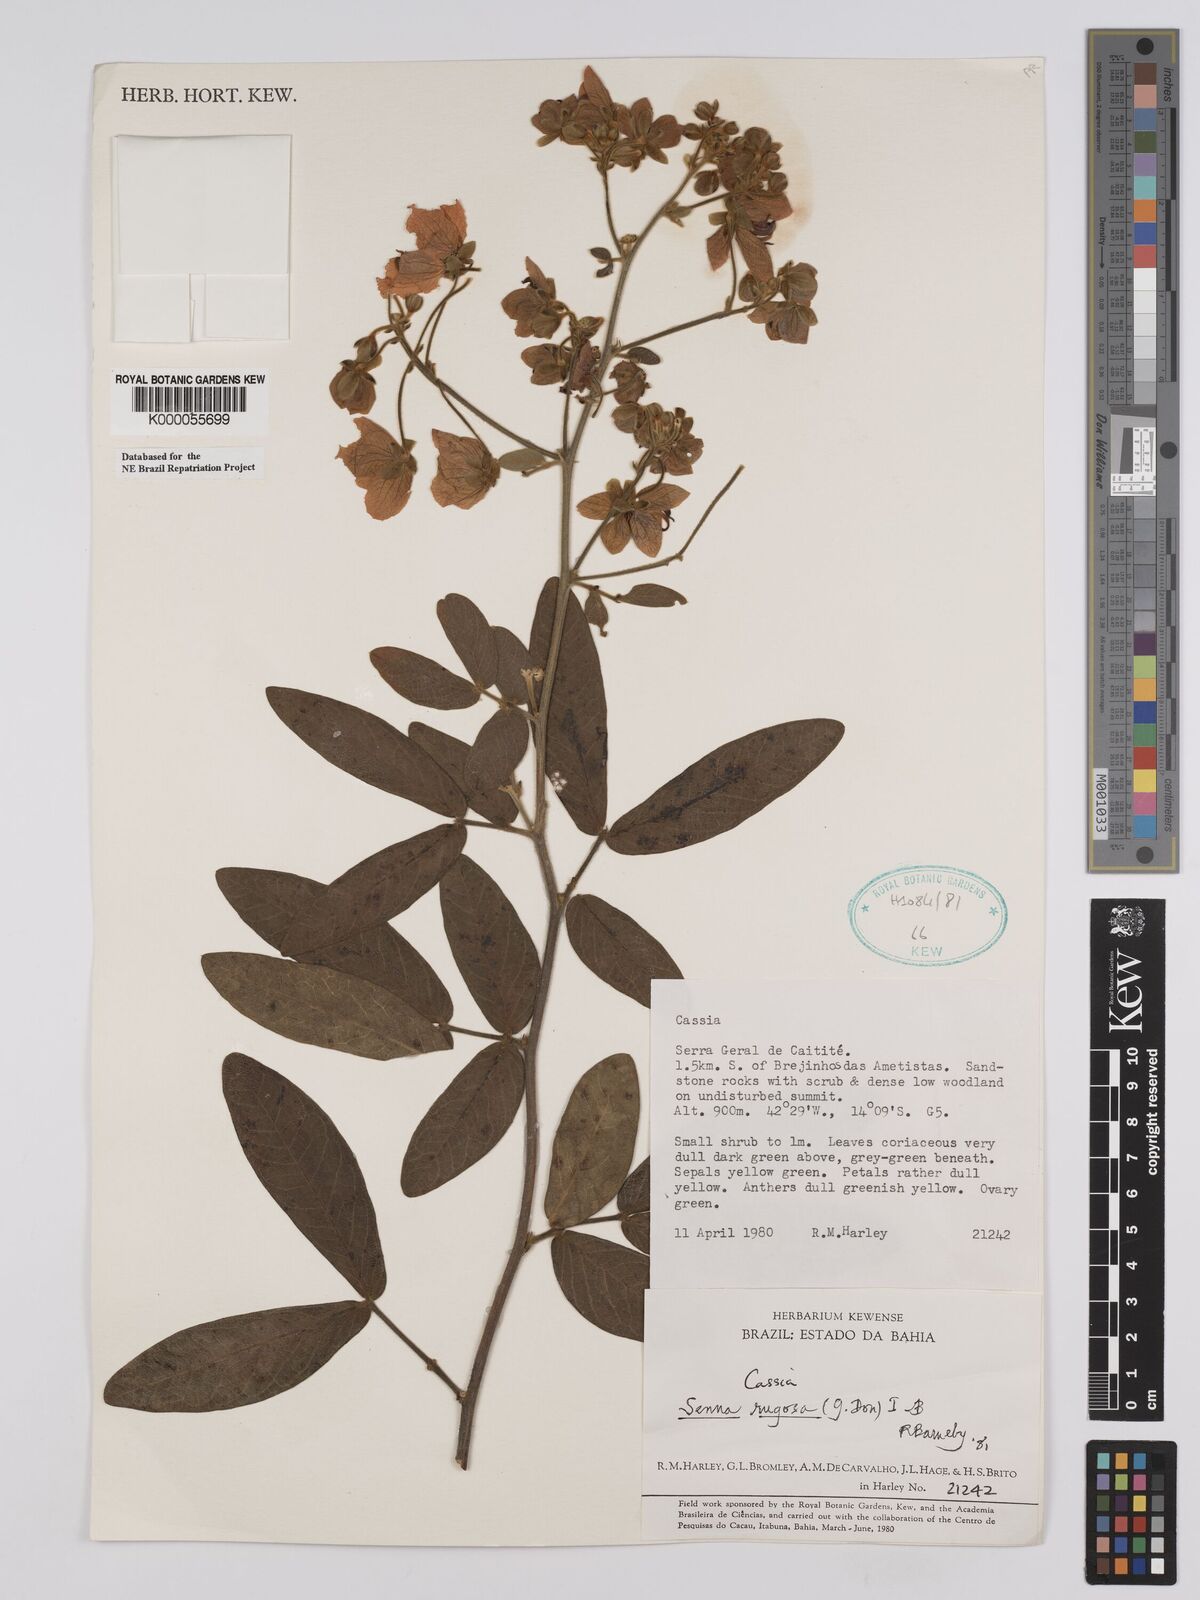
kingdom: Plantae
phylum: Tracheophyta
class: Magnoliopsida
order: Fabales
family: Fabaceae
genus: Senna
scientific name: Senna rugosa
